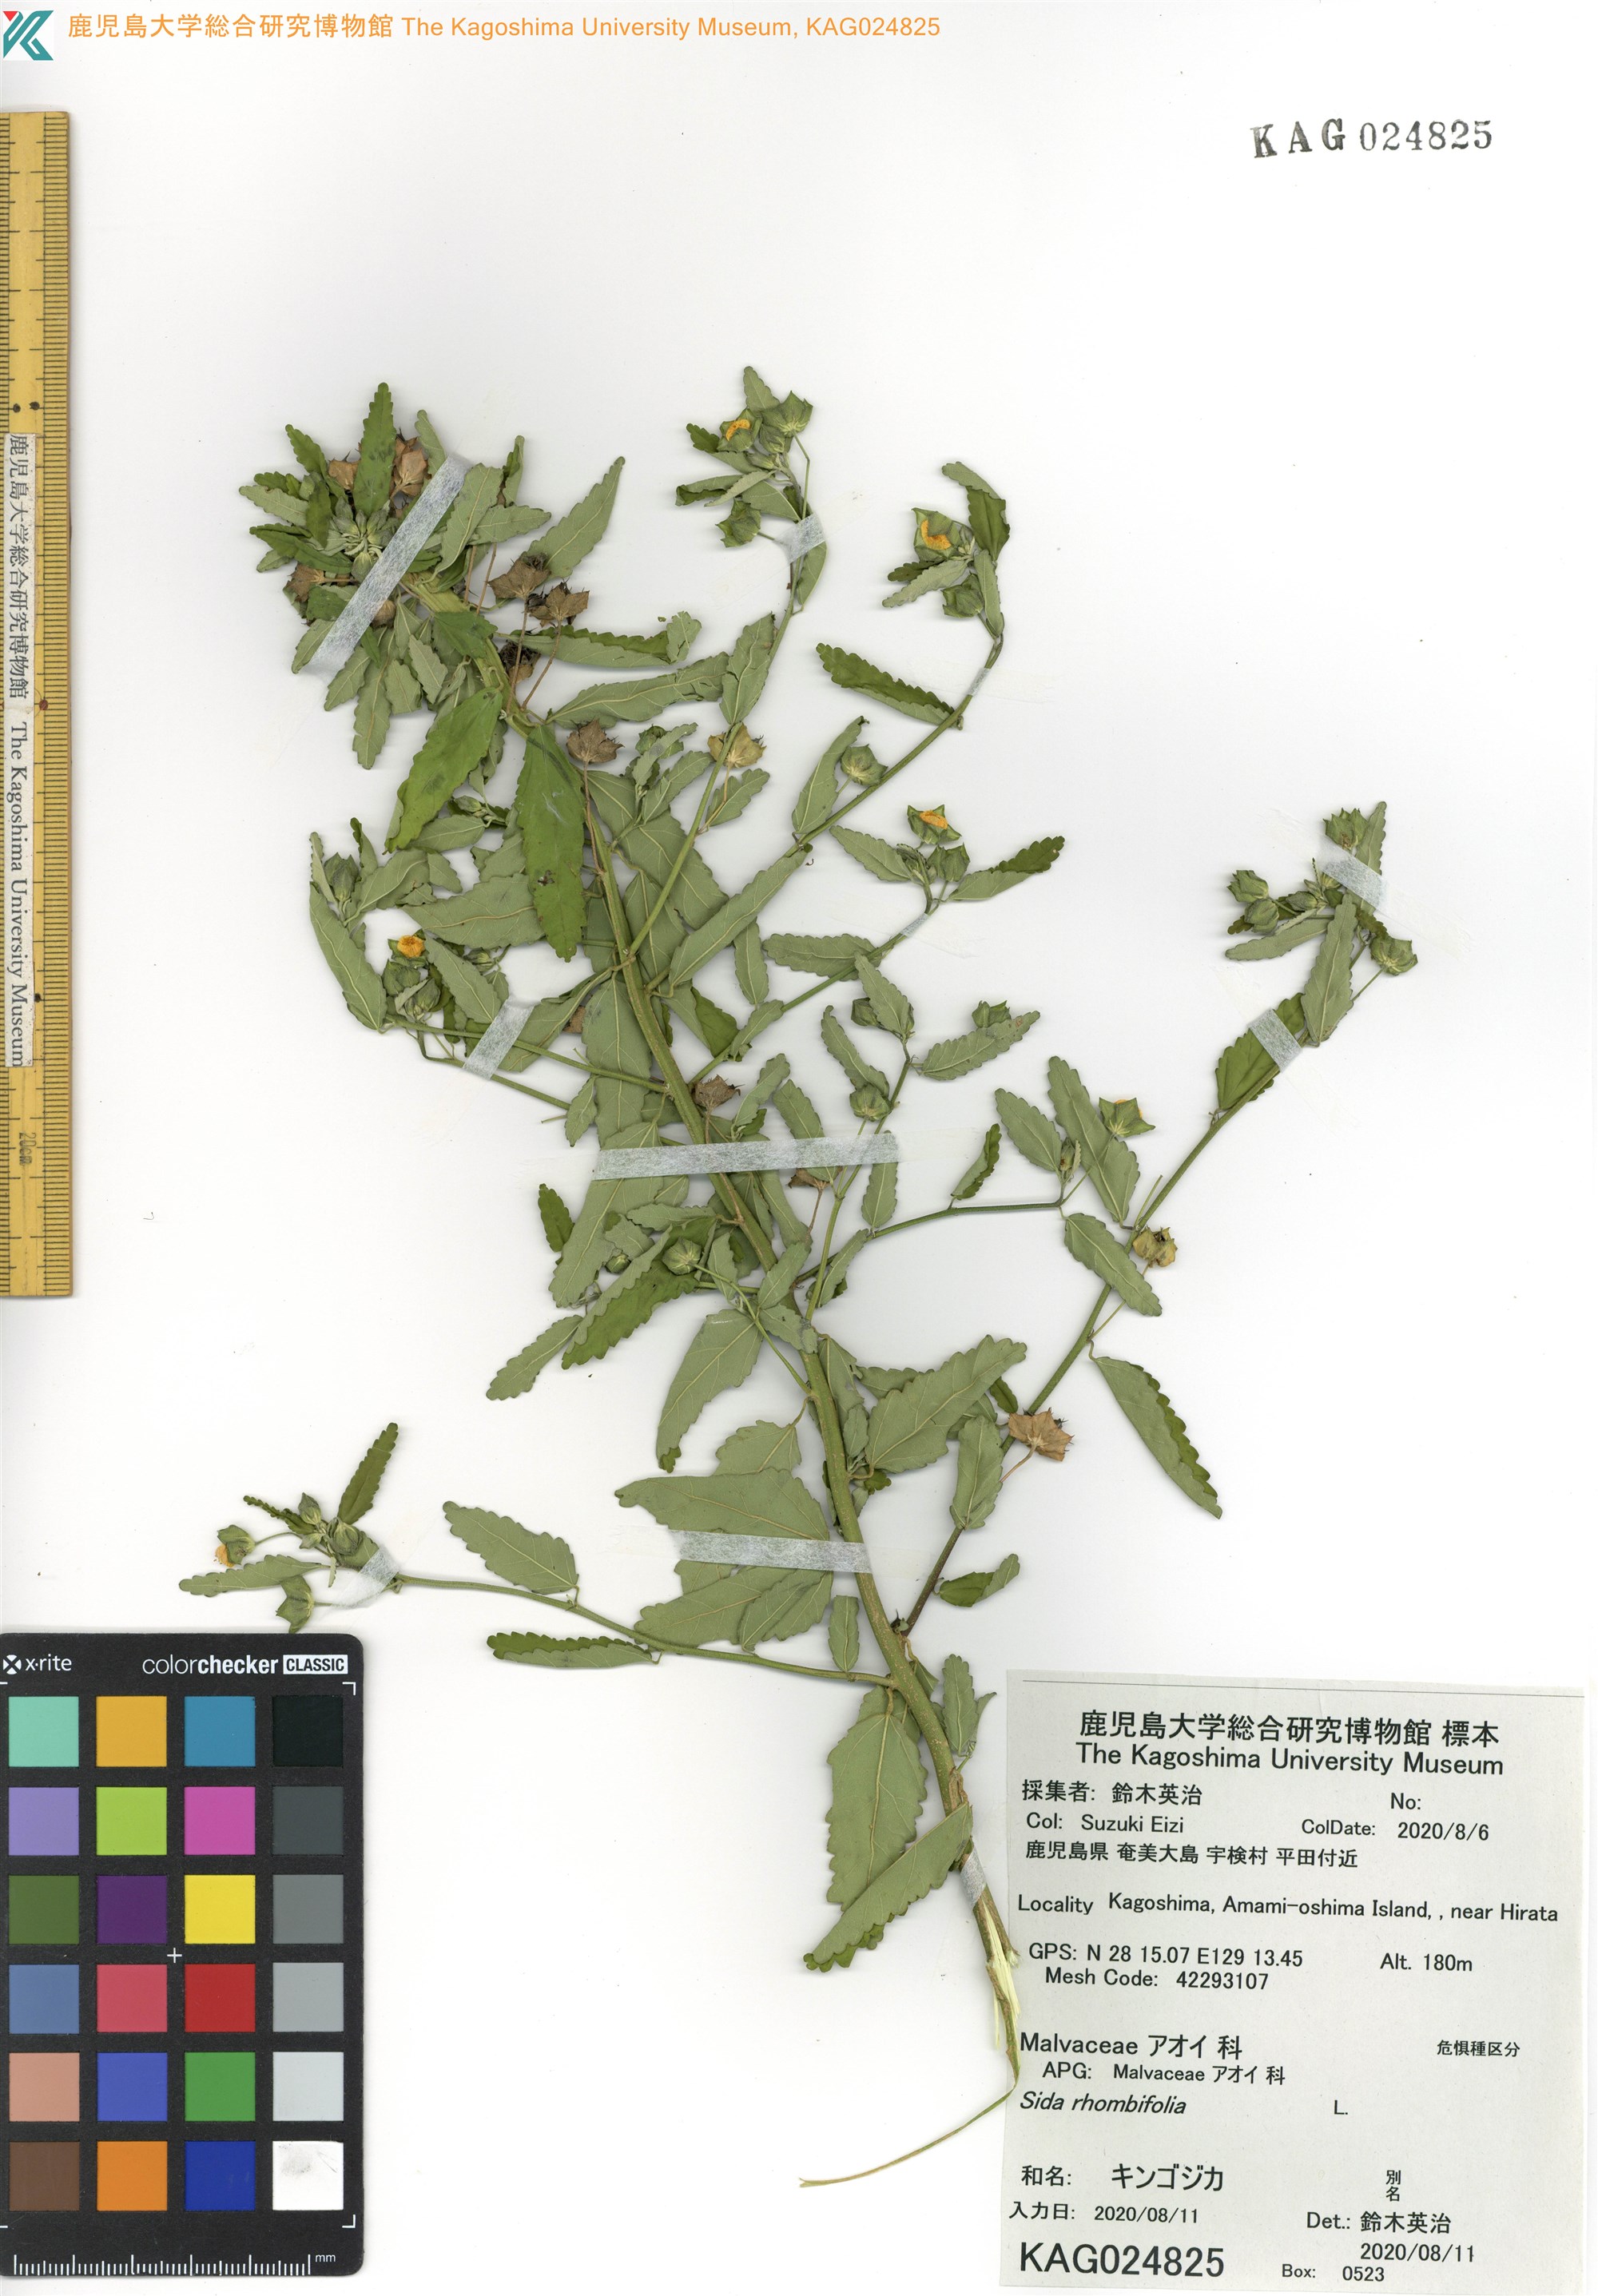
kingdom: Plantae
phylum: Tracheophyta
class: Magnoliopsida
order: Malvales
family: Malvaceae
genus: Sida
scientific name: Sida rhombifolia
